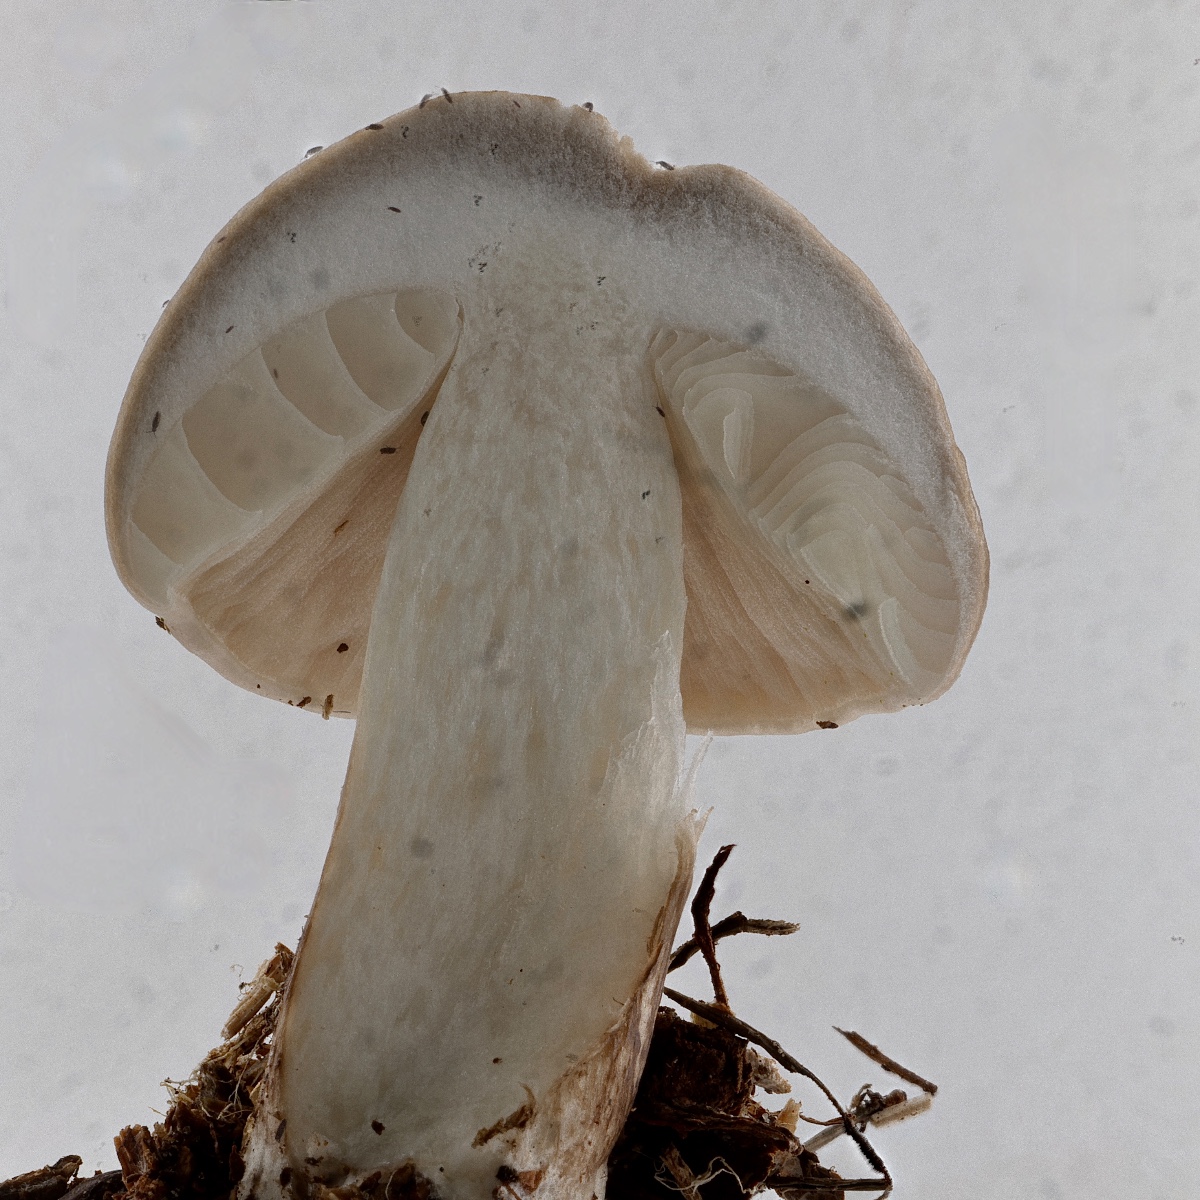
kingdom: Fungi
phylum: Basidiomycota
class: Agaricomycetes
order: Agaricales
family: Pluteaceae
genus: Pluteus
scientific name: Pluteus
